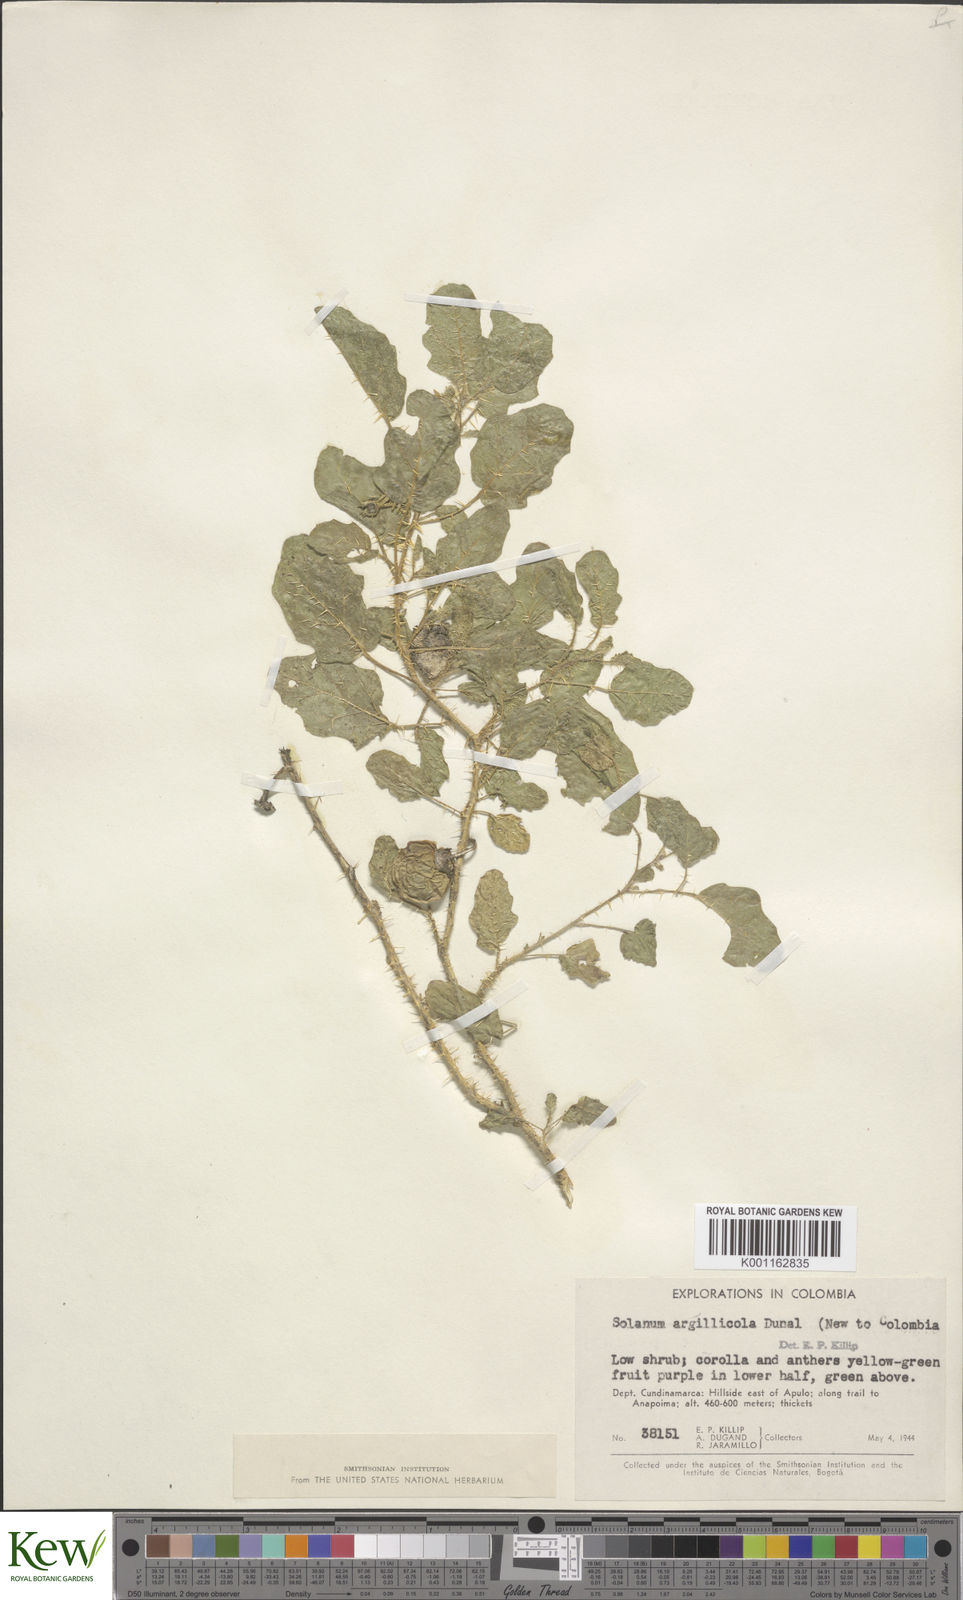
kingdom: Plantae
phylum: Tracheophyta
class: Magnoliopsida
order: Solanales
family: Solanaceae
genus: Solanum
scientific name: Solanum agrarium
